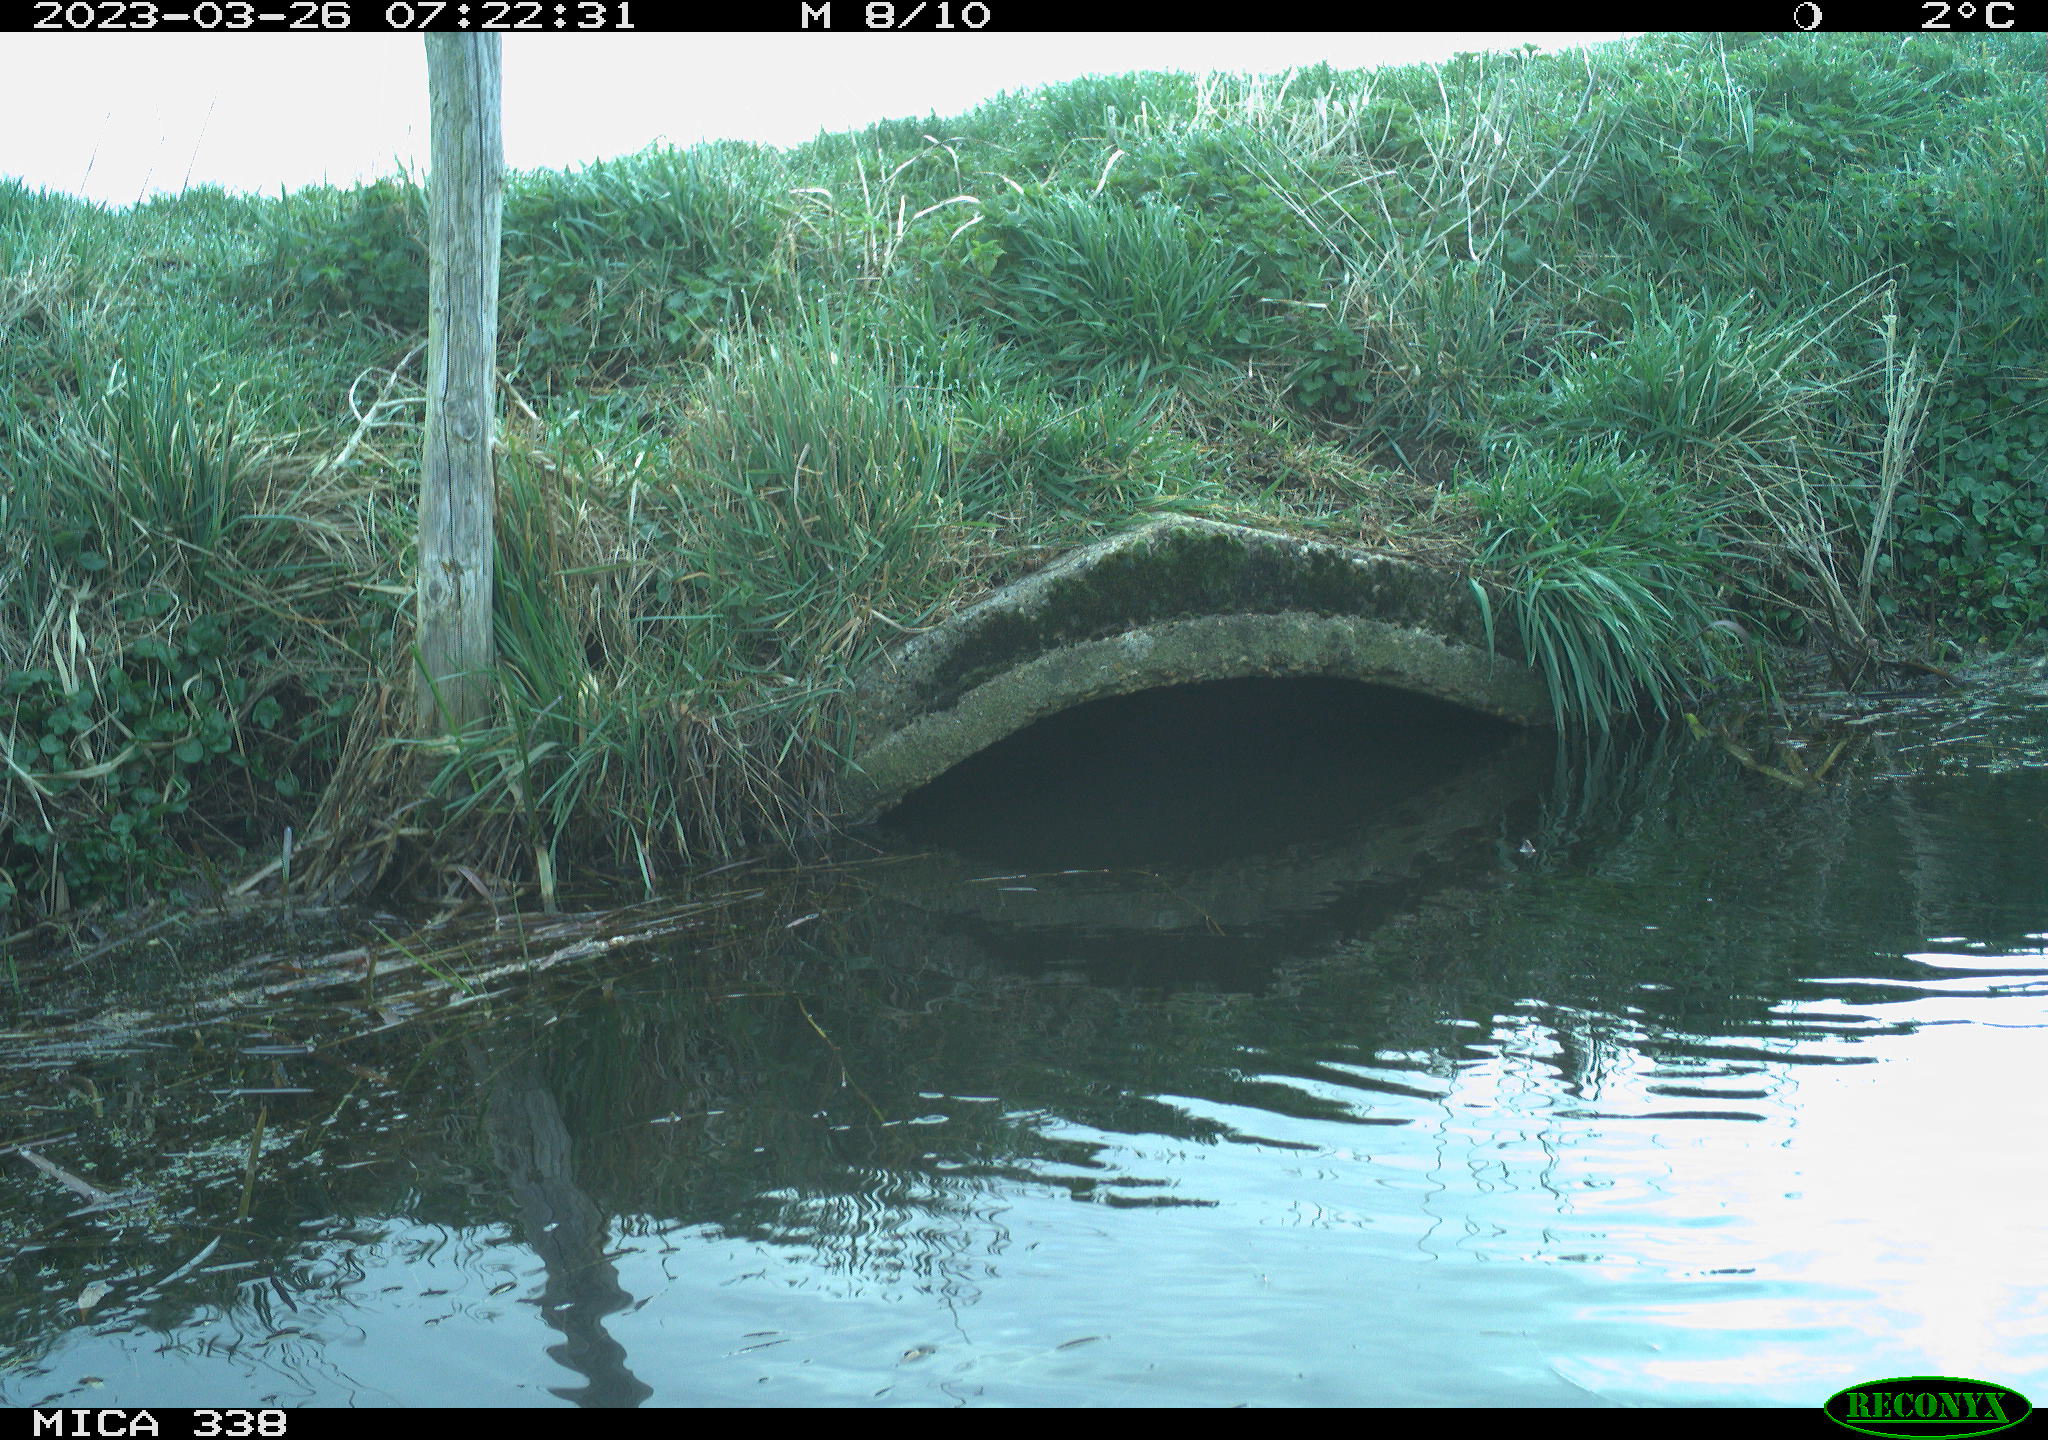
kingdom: Animalia
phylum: Chordata
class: Aves
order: Anseriformes
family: Anatidae
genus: Anas
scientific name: Anas
